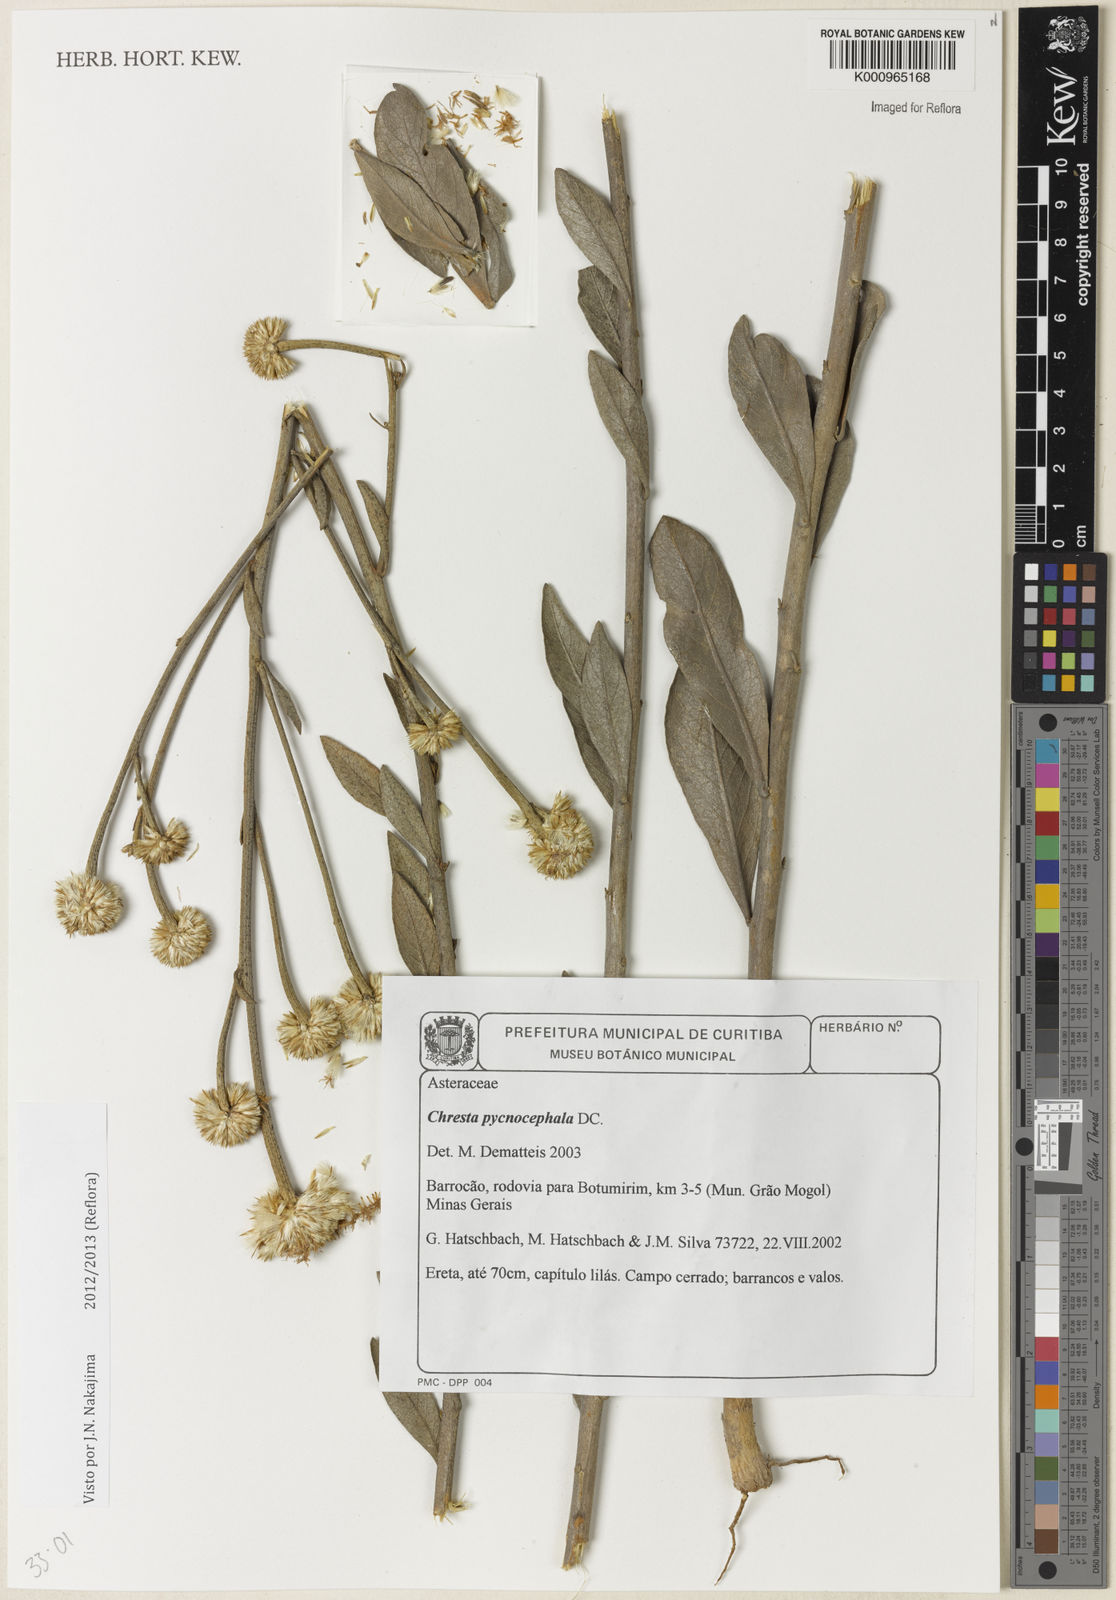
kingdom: Plantae
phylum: Tracheophyta
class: Magnoliopsida
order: Asterales
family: Asteraceae
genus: Chresta
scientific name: Chresta pycnocephala
